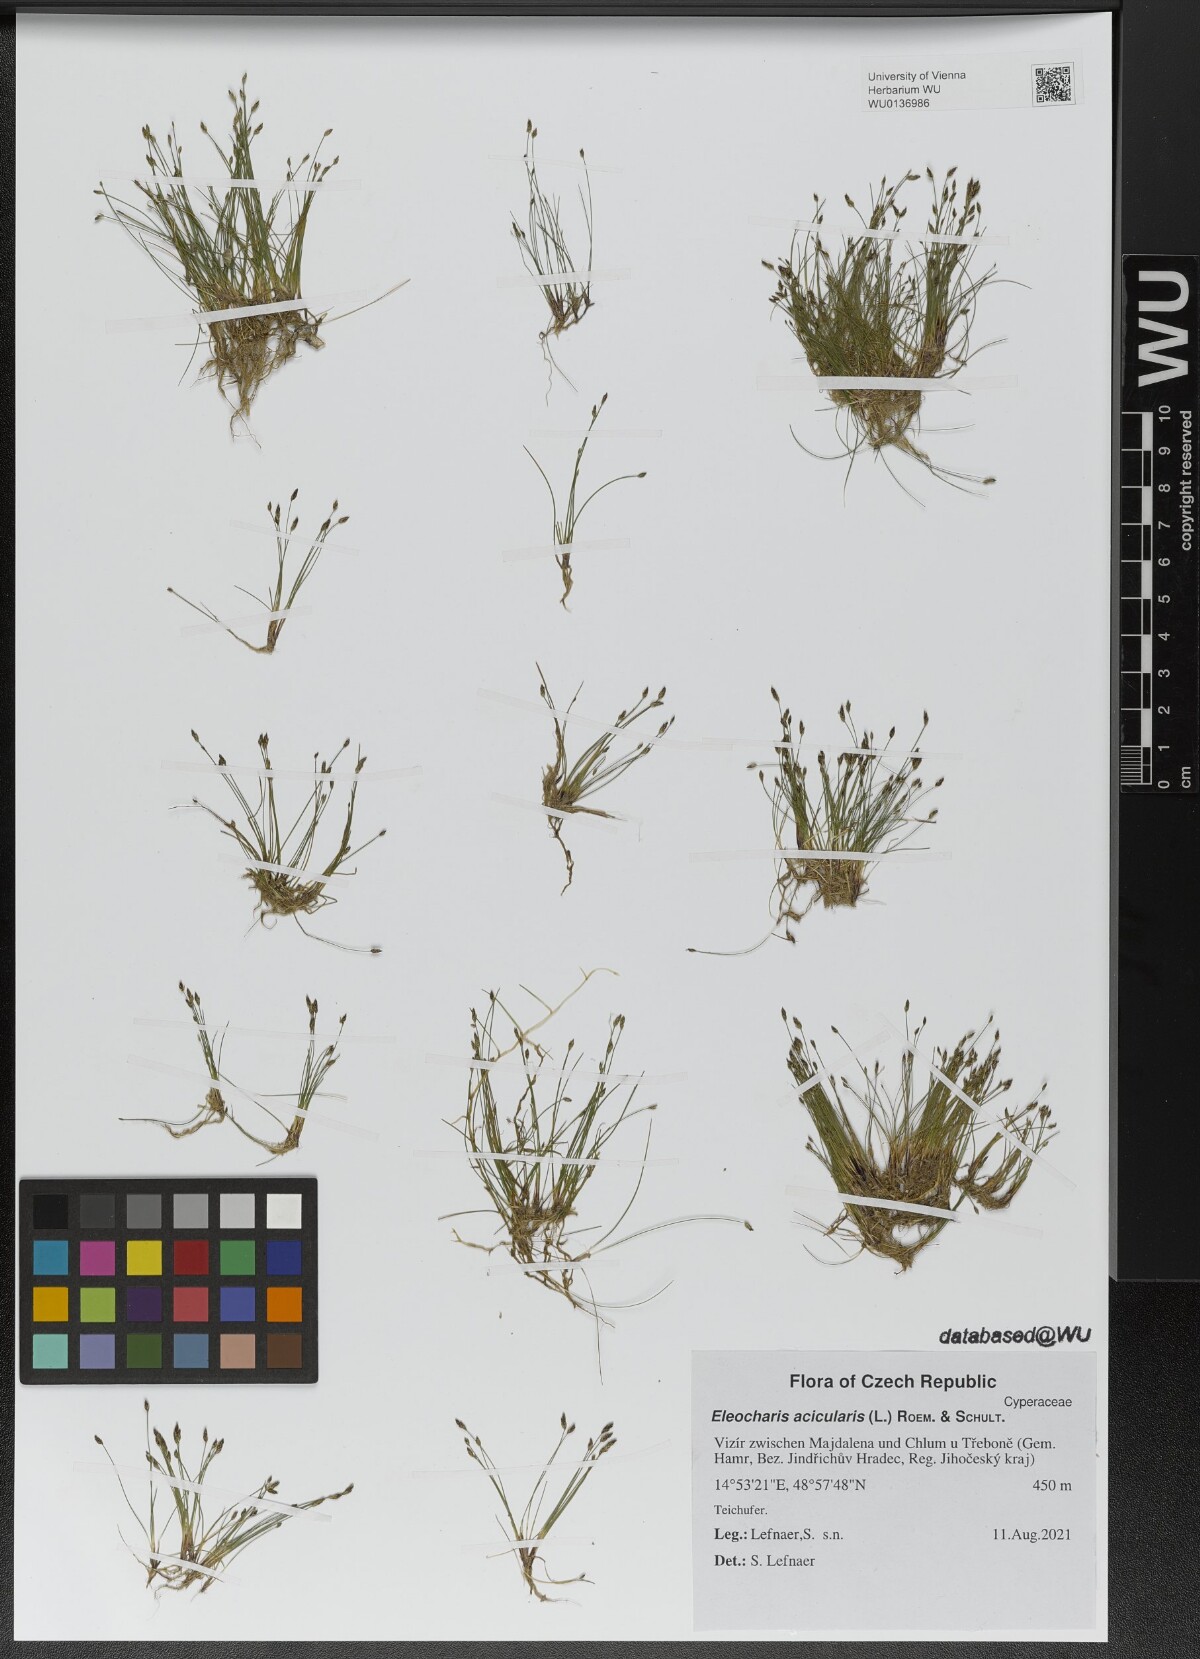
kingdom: Plantae
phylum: Tracheophyta
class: Liliopsida
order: Poales
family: Cyperaceae
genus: Eleocharis
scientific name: Eleocharis acicularis
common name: Needle spike-rush
